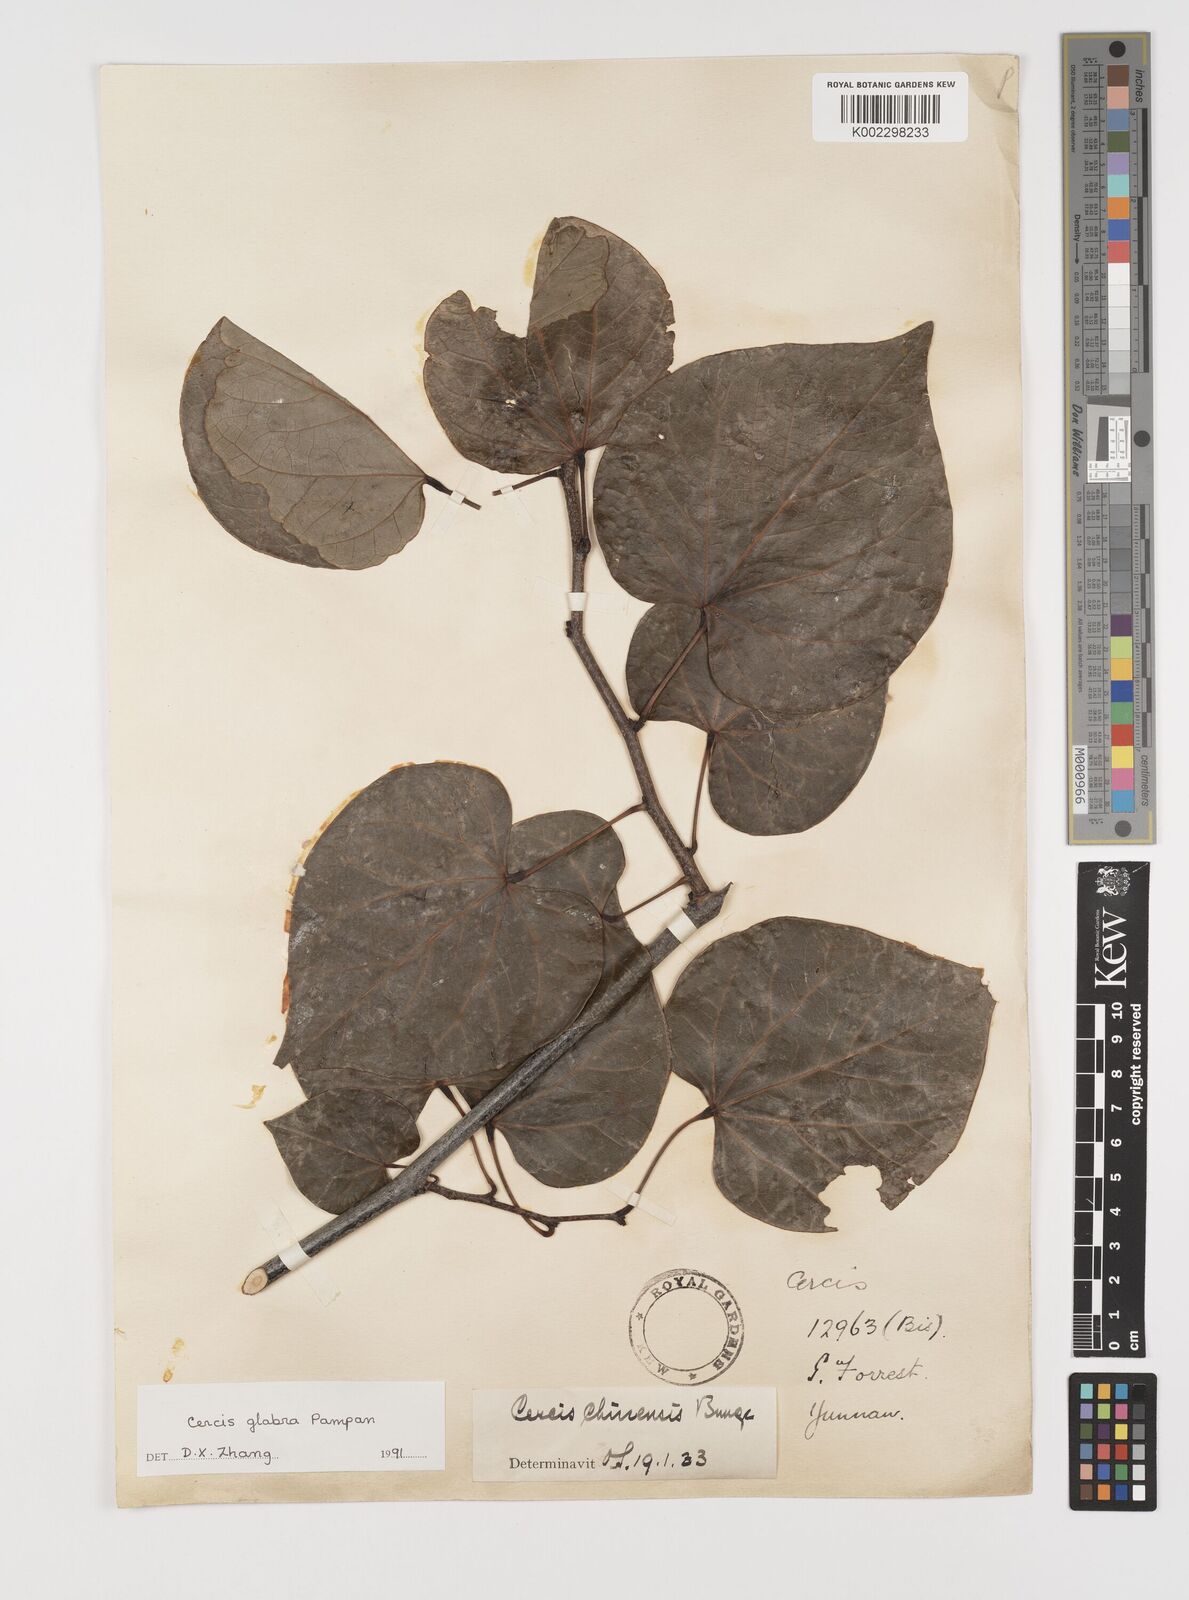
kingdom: Plantae
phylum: Tracheophyta
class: Magnoliopsida
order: Fabales
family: Fabaceae
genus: Cercis
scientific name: Cercis glabra
